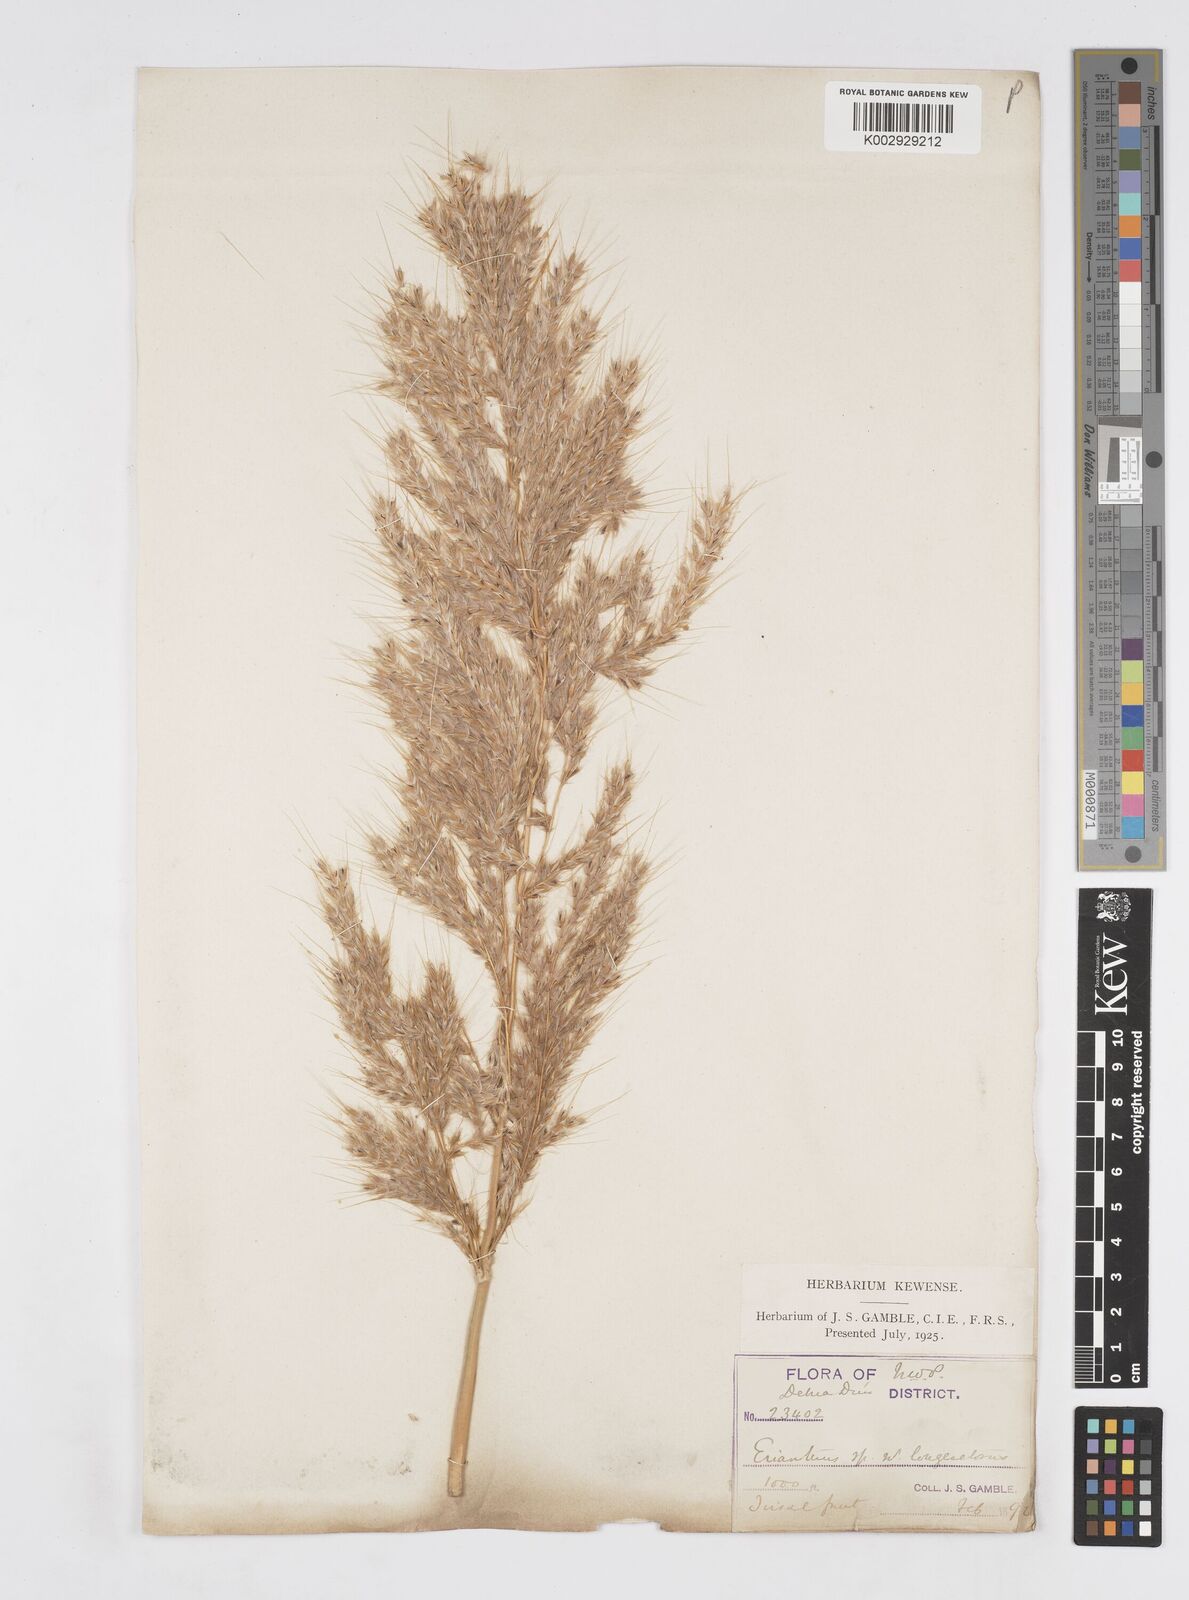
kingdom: Plantae
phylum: Tracheophyta
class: Liliopsida
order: Poales
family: Poaceae
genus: Melinis
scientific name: Melinis longiseta
